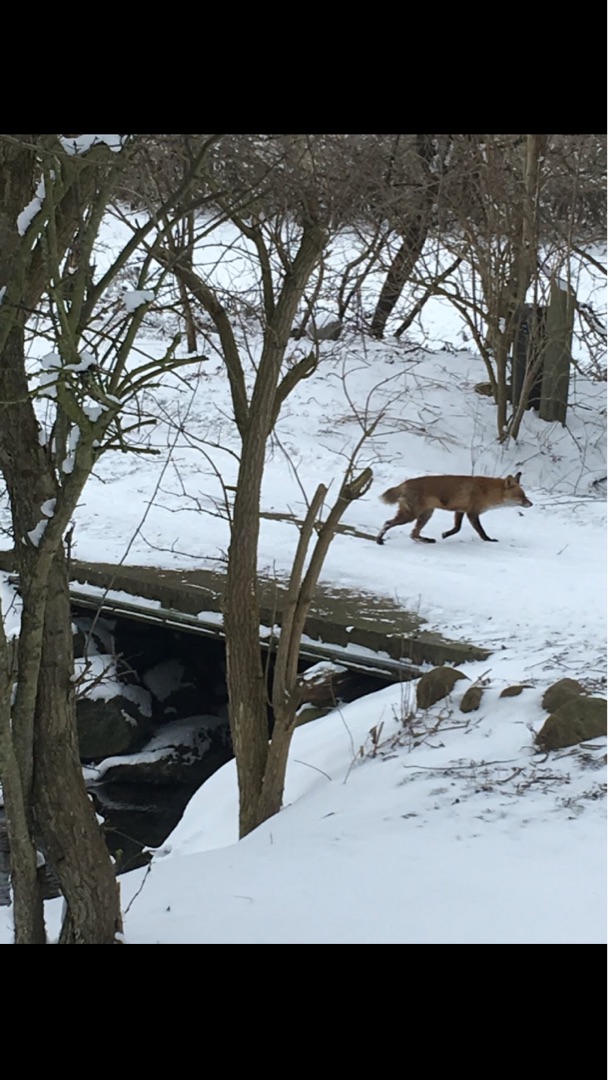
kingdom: Animalia
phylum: Chordata
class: Mammalia
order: Carnivora
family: Canidae
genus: Vulpes
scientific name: Vulpes vulpes
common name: Ræv
